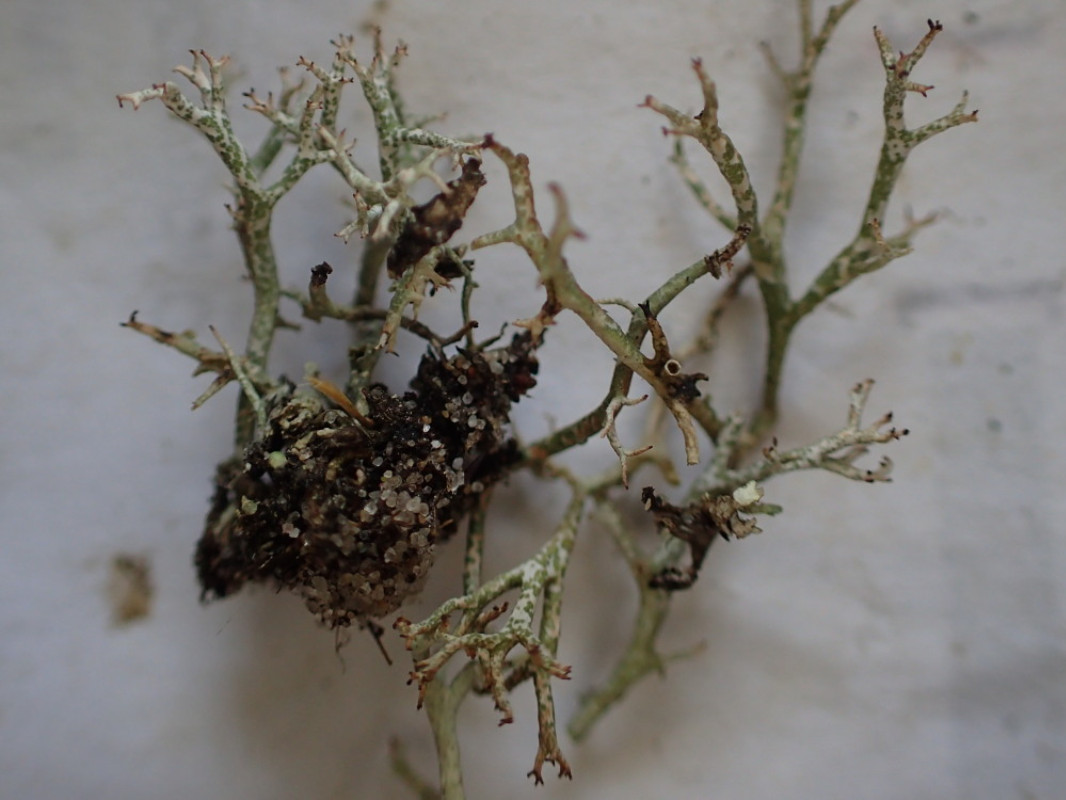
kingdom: Fungi
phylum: Ascomycota
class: Lecanoromycetes
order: Lecanorales
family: Cladoniaceae
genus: Cladonia
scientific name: Cladonia rangiformis
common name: spættet bægerlav
